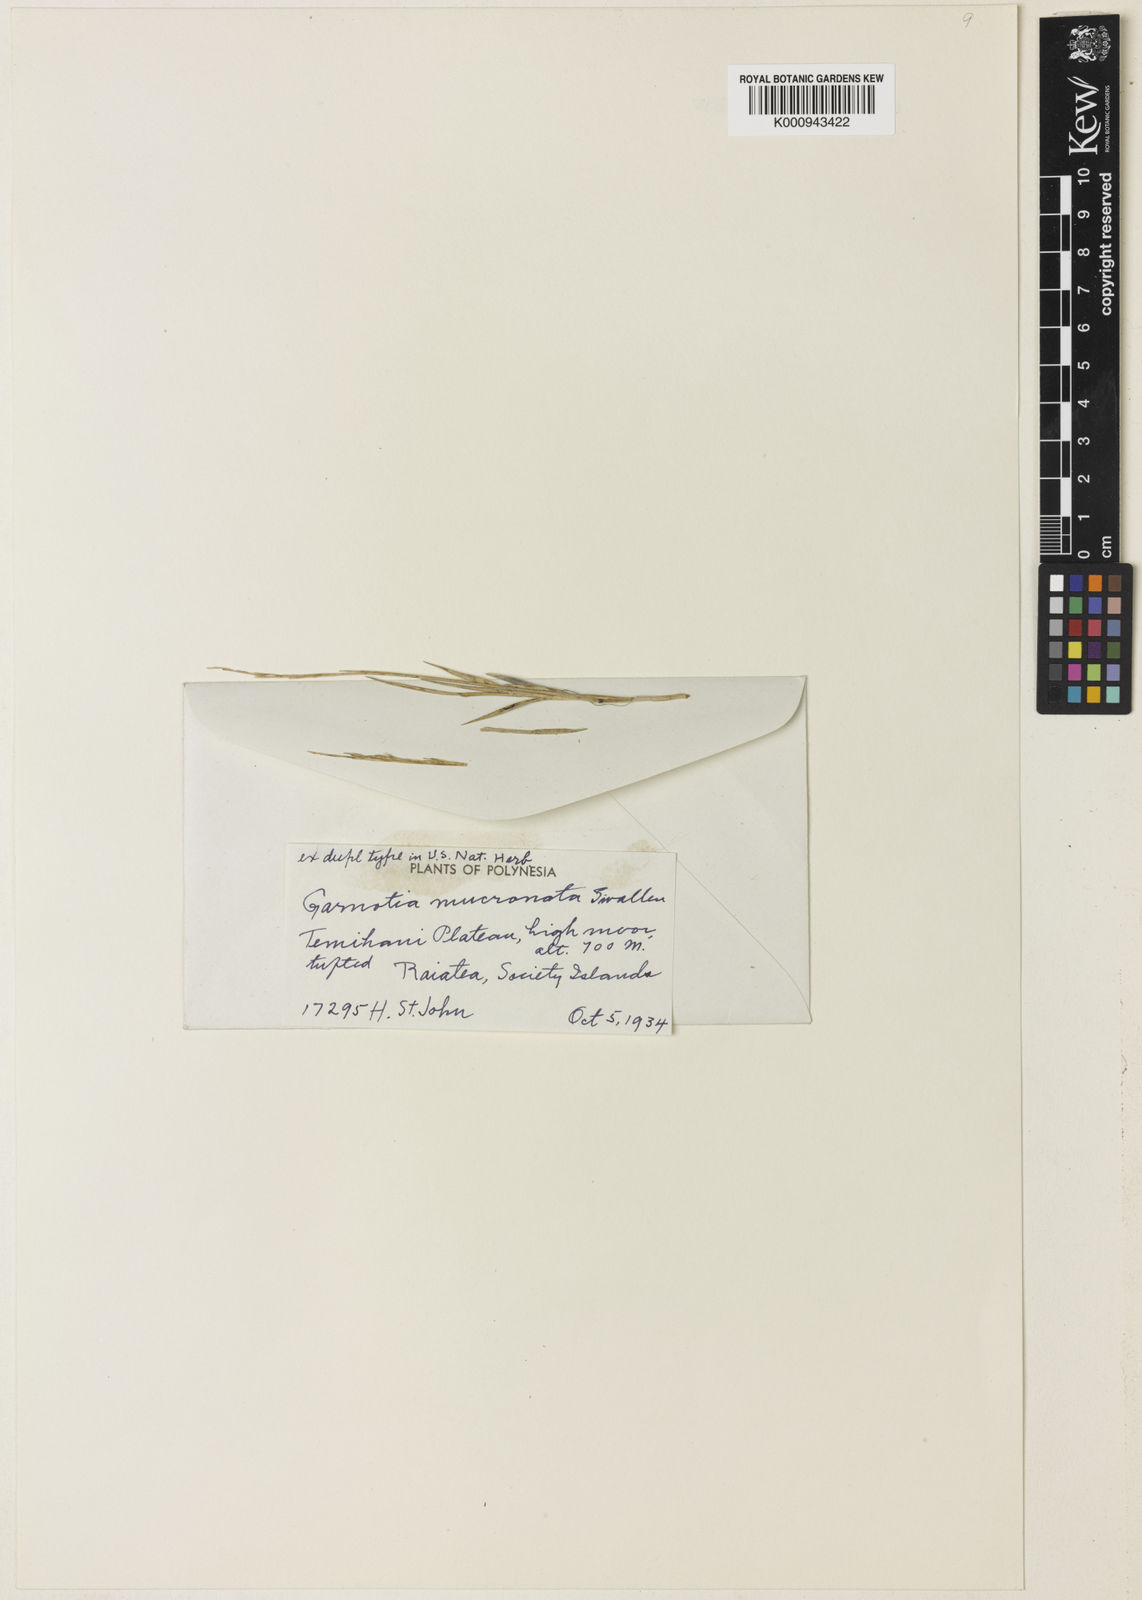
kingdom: Plantae
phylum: Tracheophyta
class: Liliopsida
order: Poales
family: Poaceae
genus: Garnotia
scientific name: Garnotia depressa
